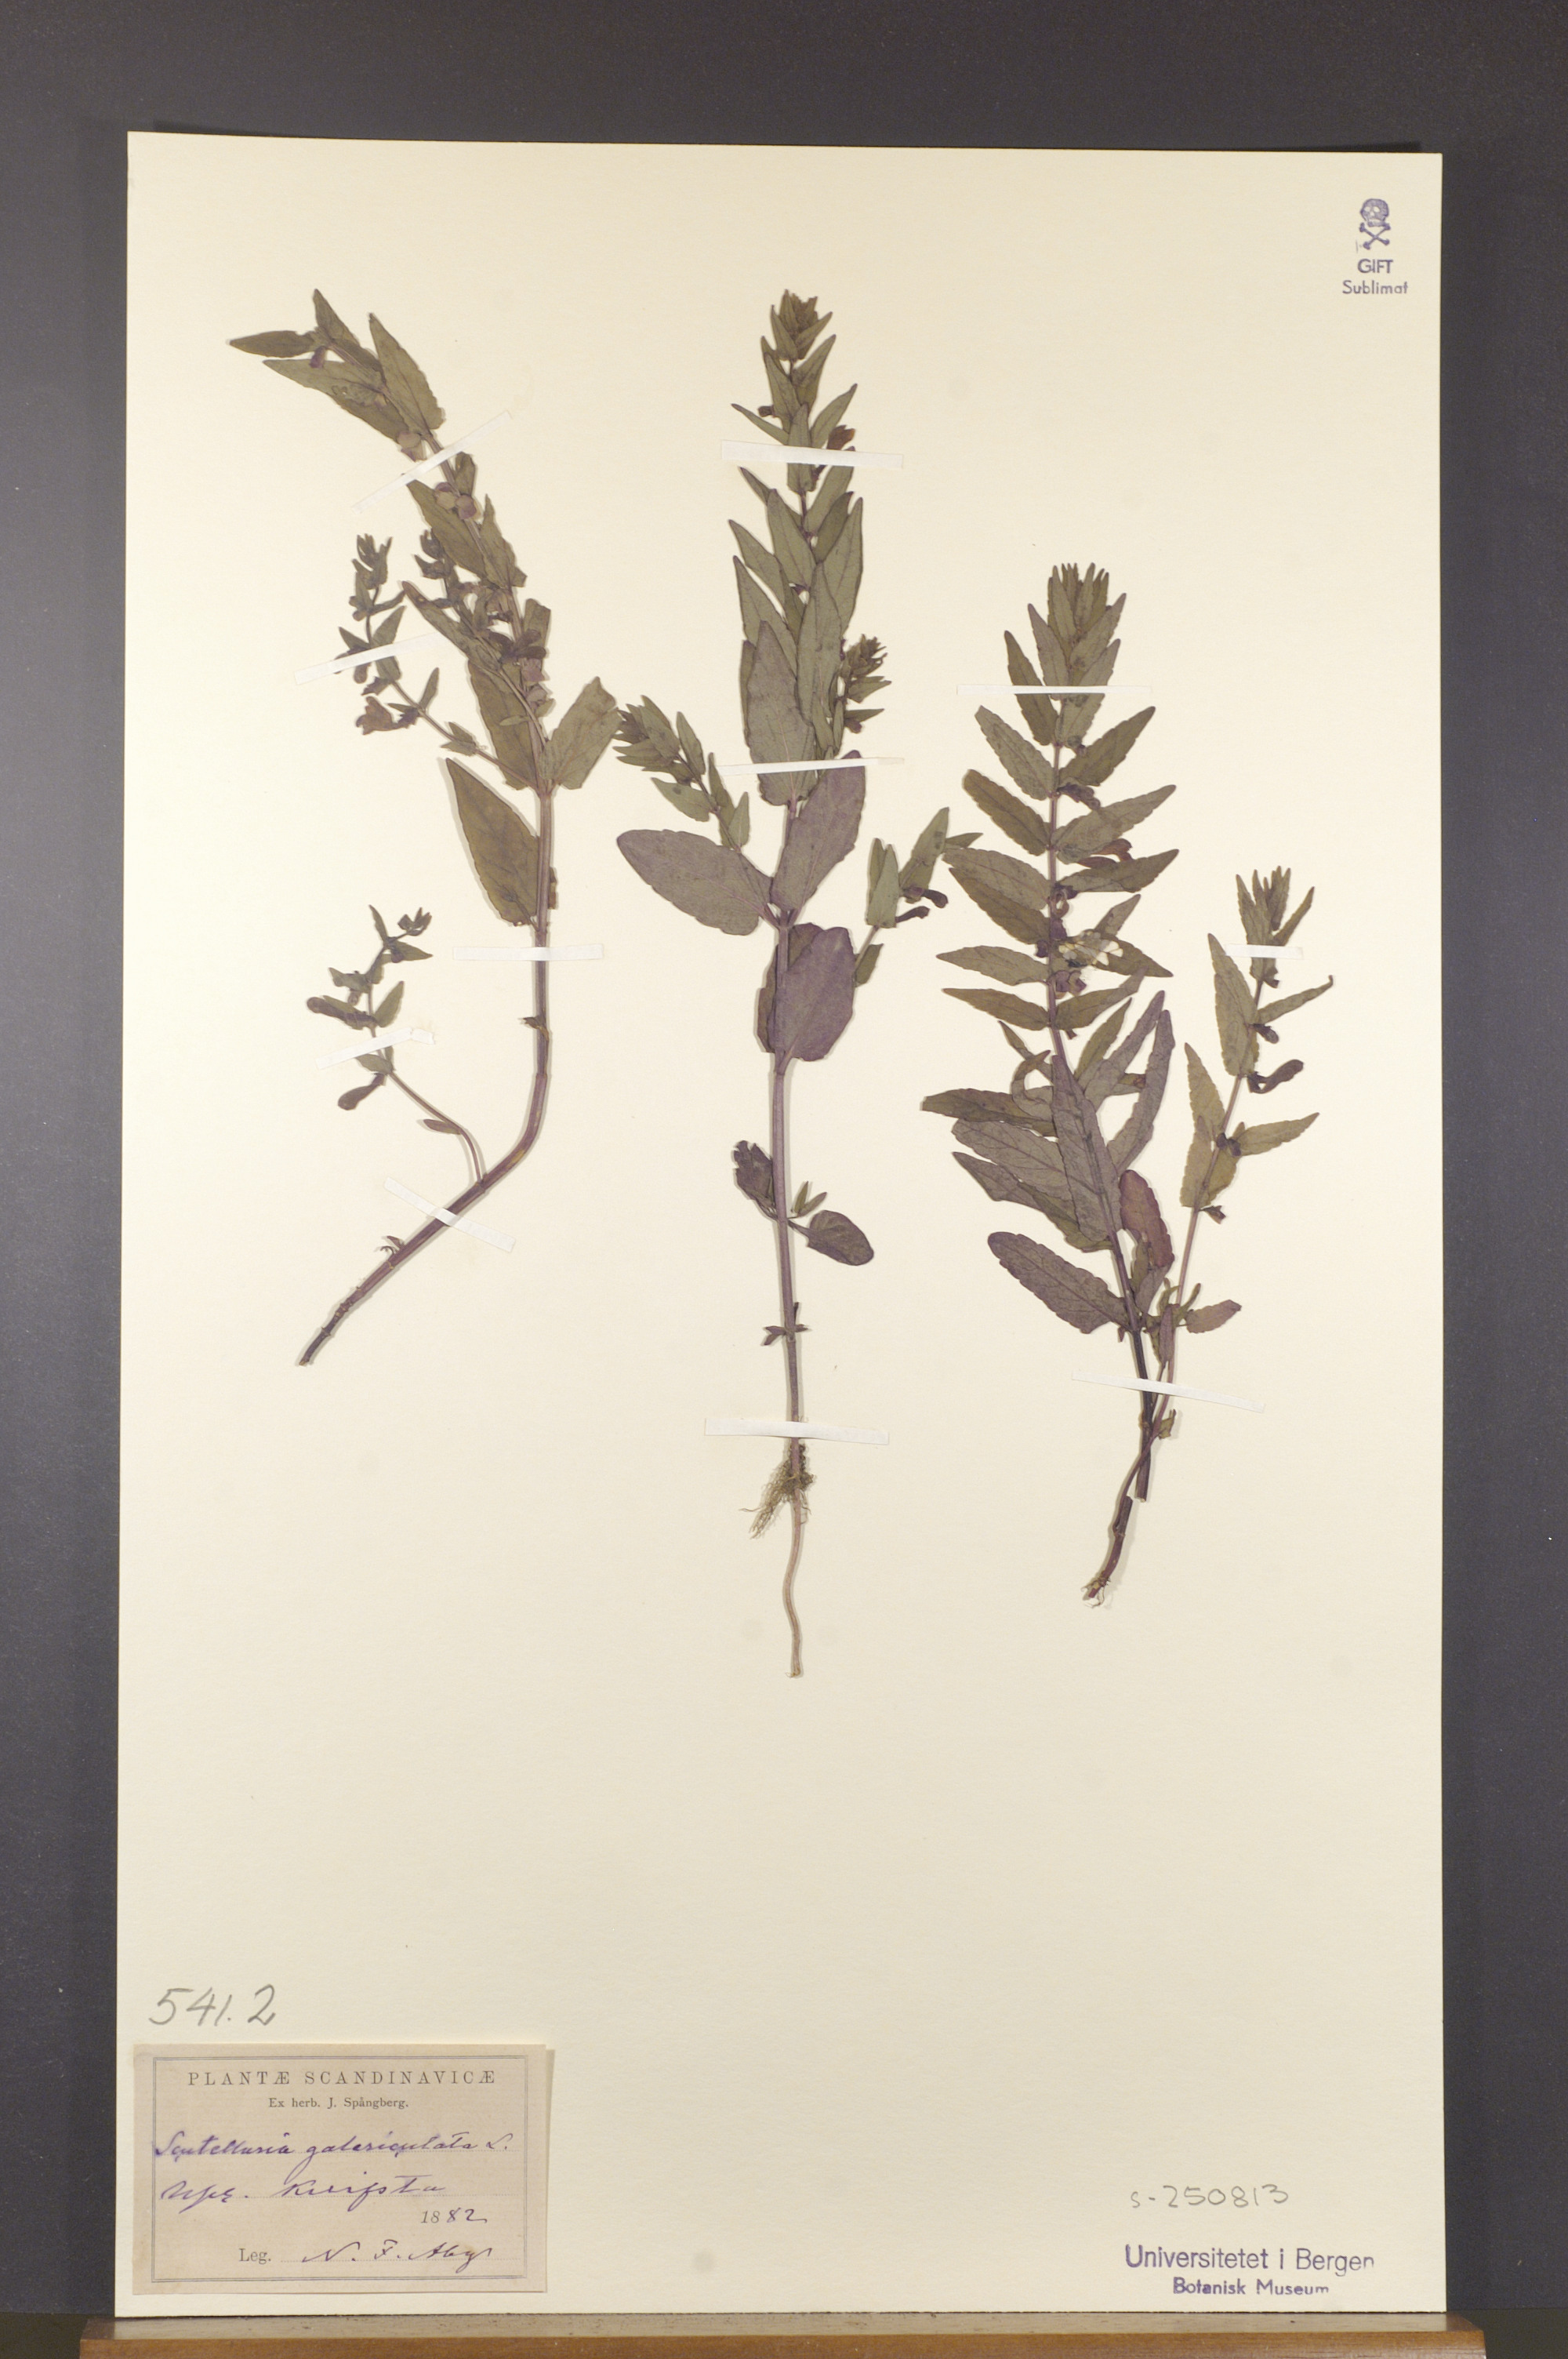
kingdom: Plantae
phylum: Tracheophyta
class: Magnoliopsida
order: Lamiales
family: Lamiaceae
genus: Scutellaria
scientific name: Scutellaria galericulata
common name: Skullcap
